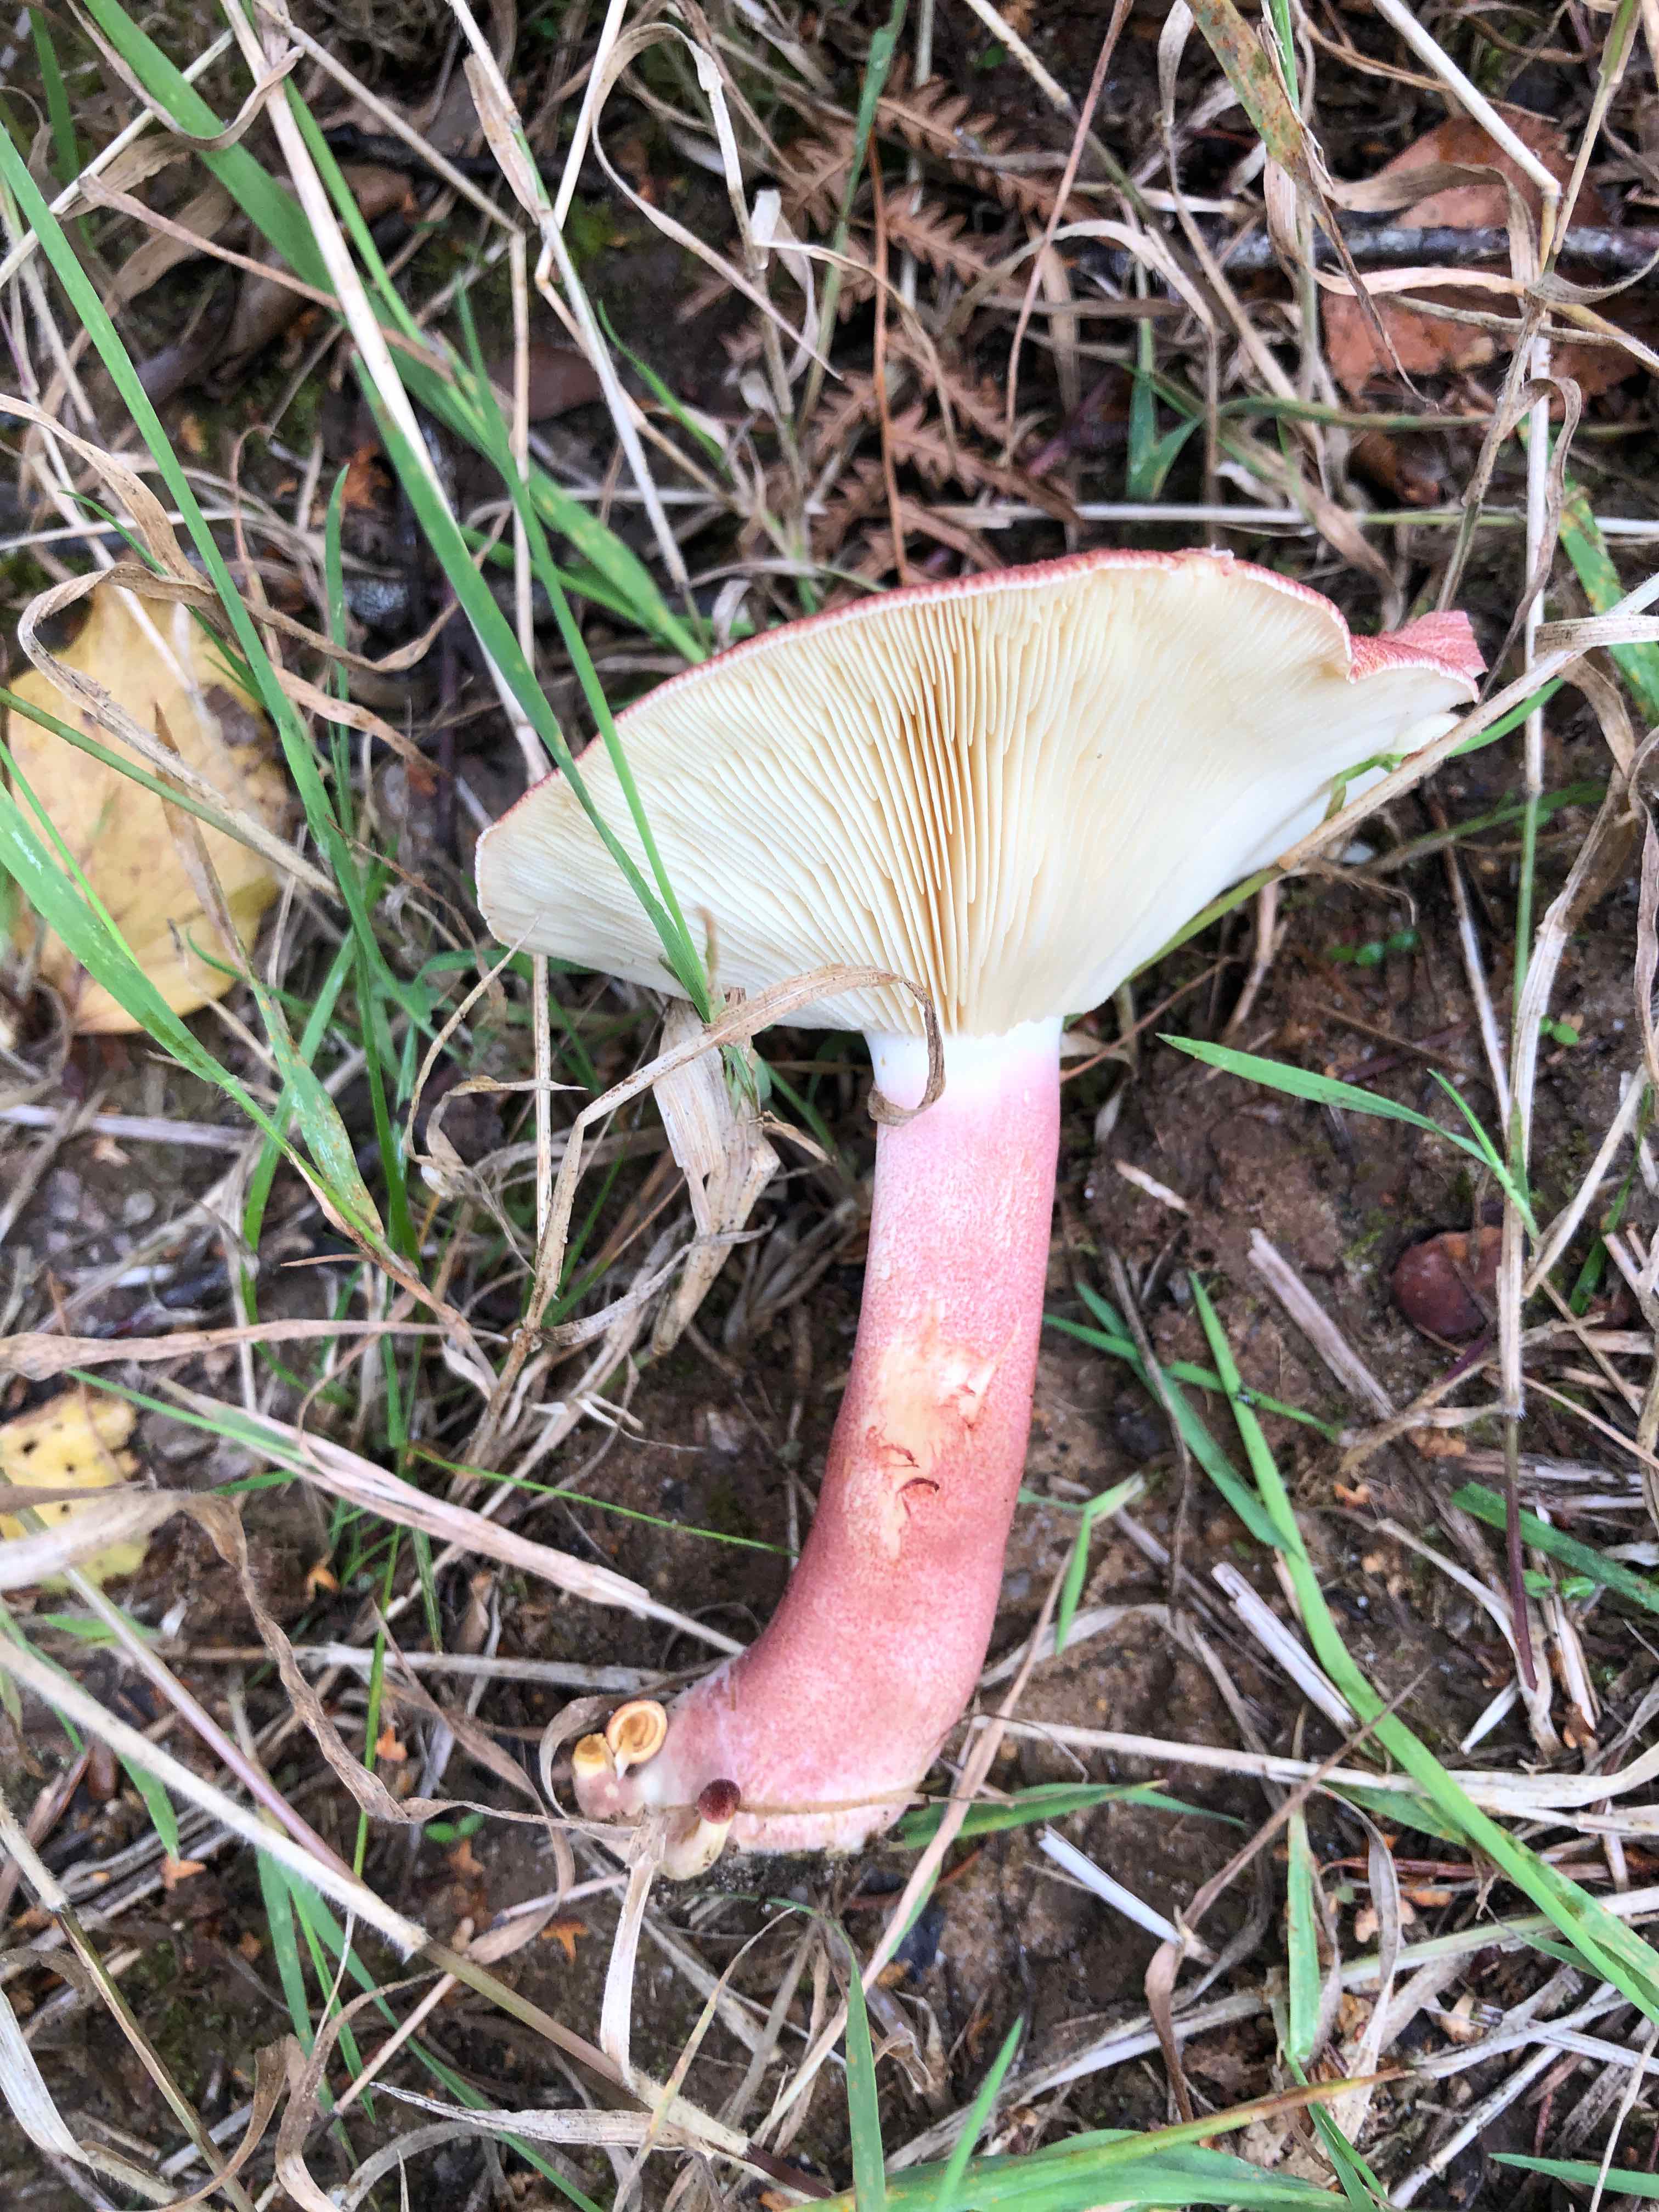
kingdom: Fungi
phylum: Basidiomycota
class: Agaricomycetes
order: Agaricales
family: Tricholomataceae
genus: Tricholomopsis
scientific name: Tricholomopsis rutilans
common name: purpur-væbnerhat
